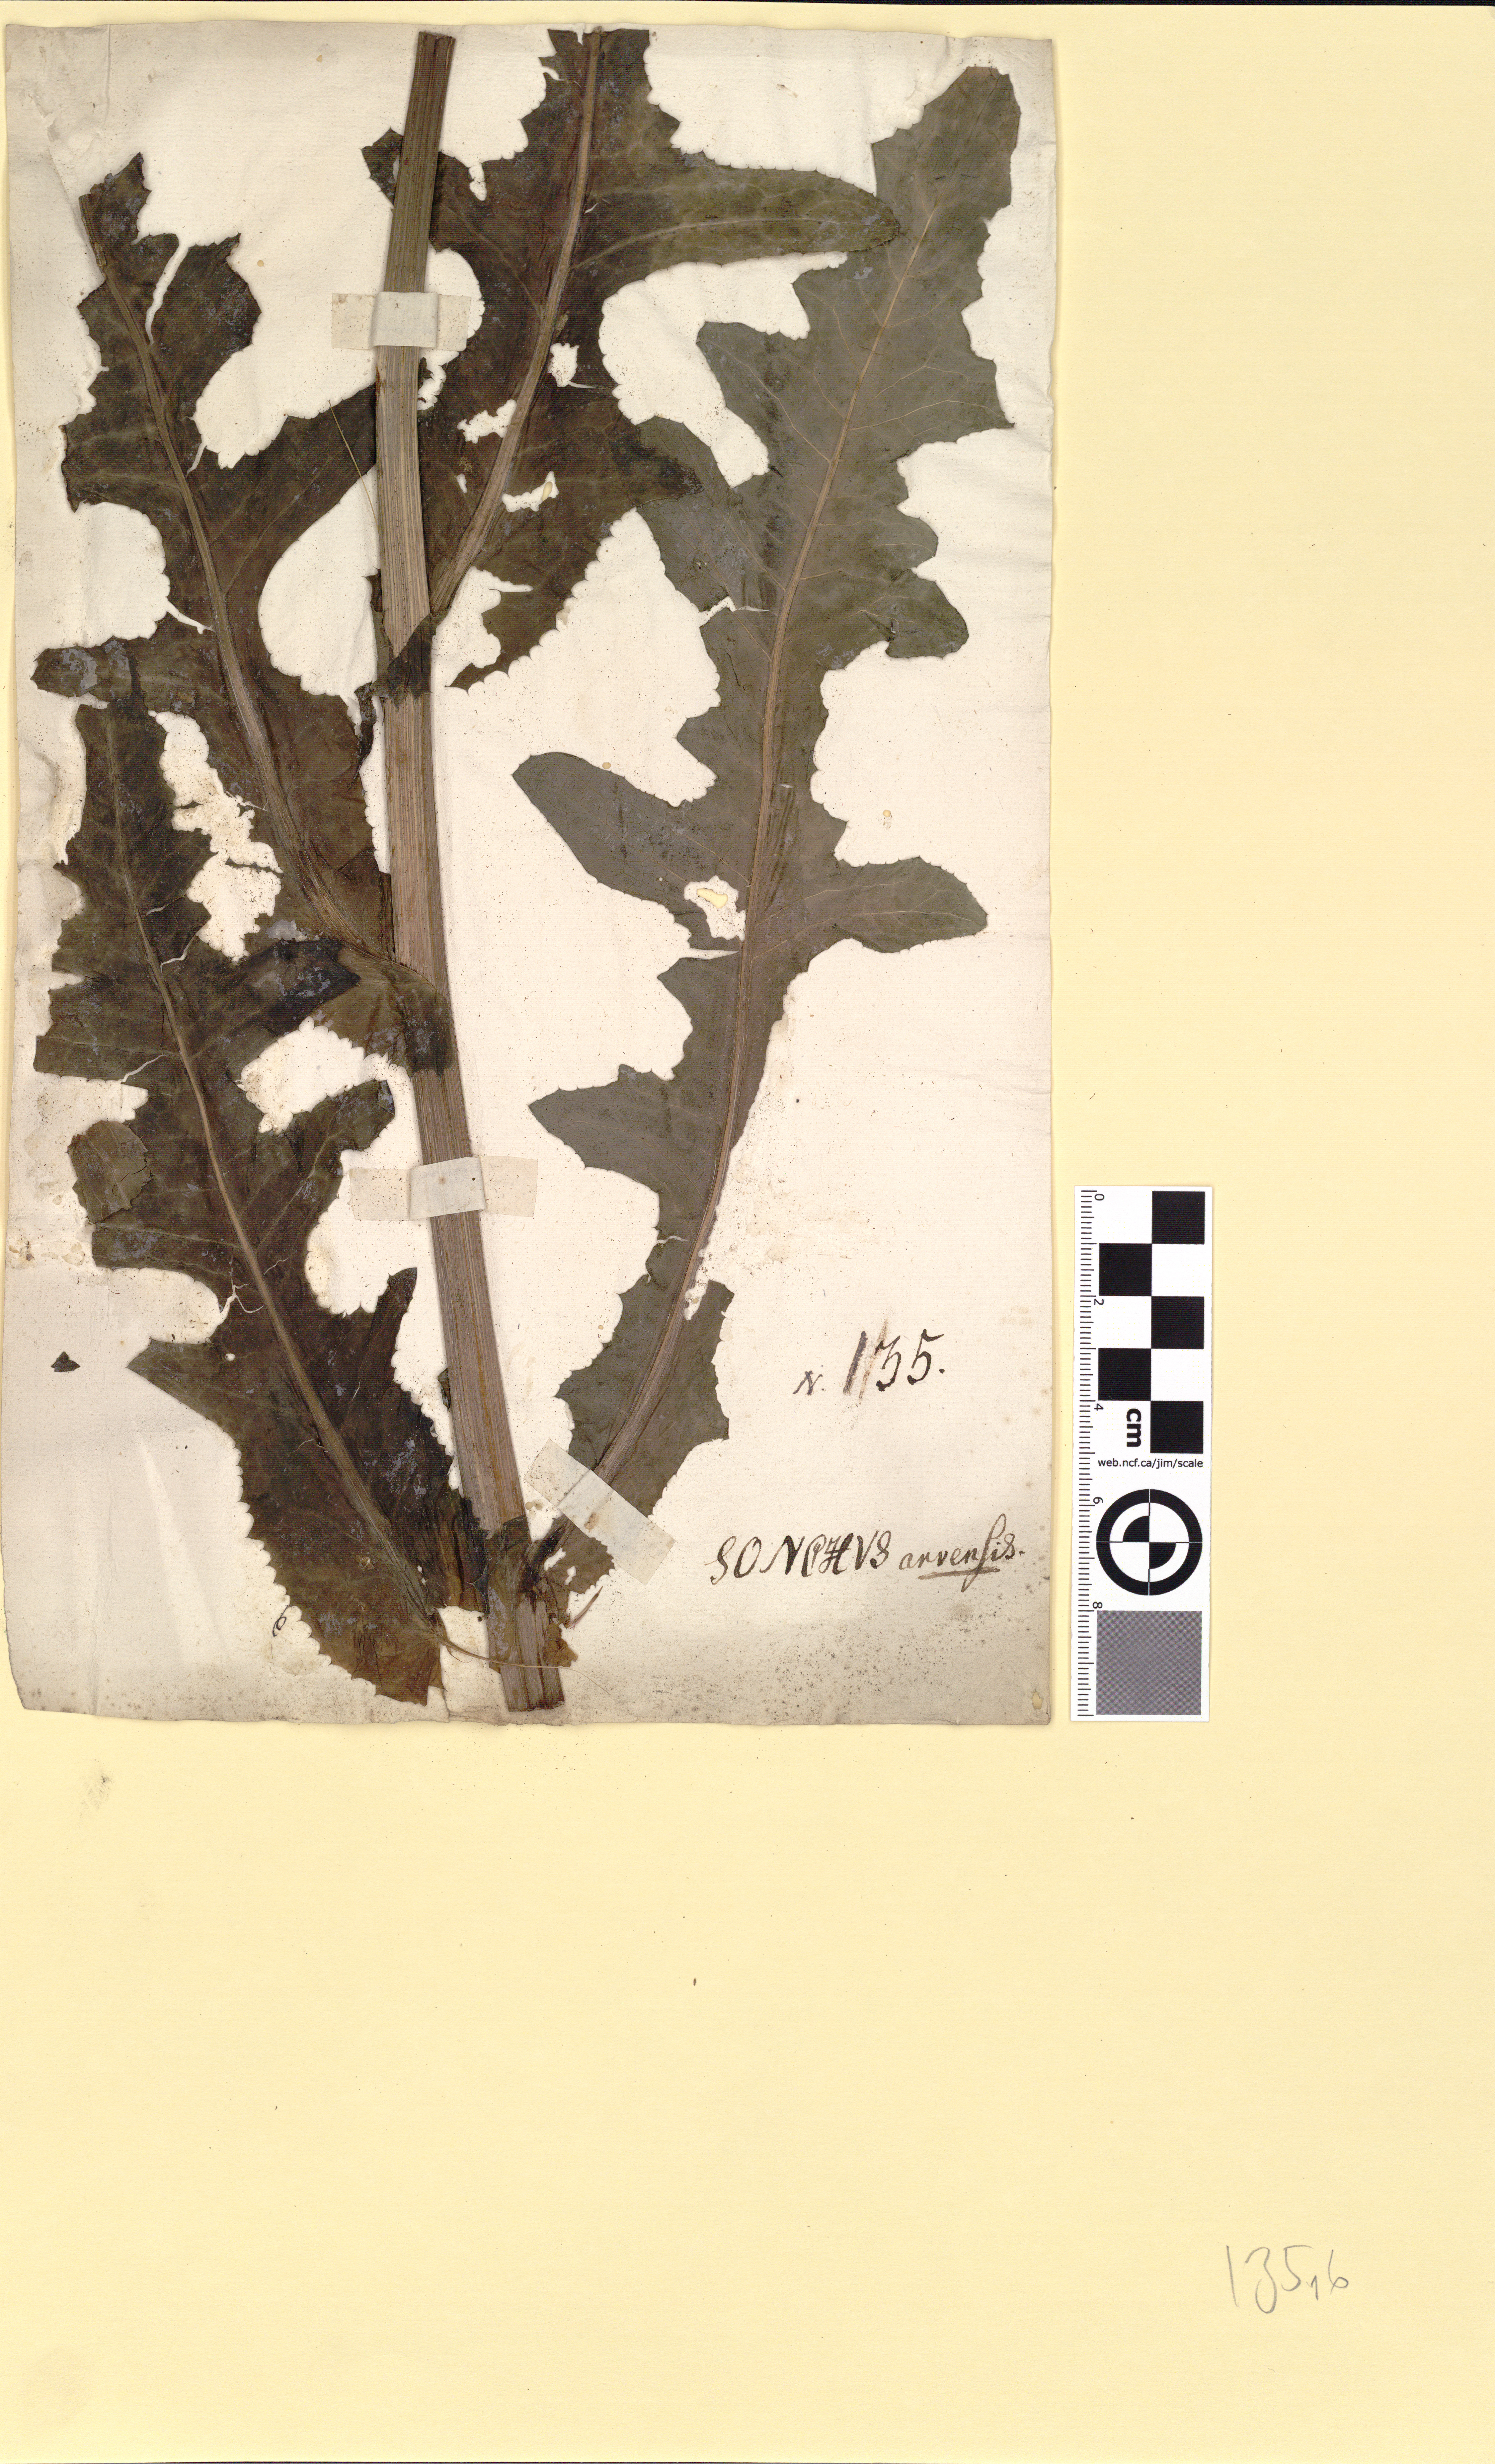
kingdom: Plantae
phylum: Tracheophyta
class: Magnoliopsida
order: Asterales
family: Asteraceae
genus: Sonchus
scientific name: Sonchus arvensis
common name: Perennial sow-thistle
